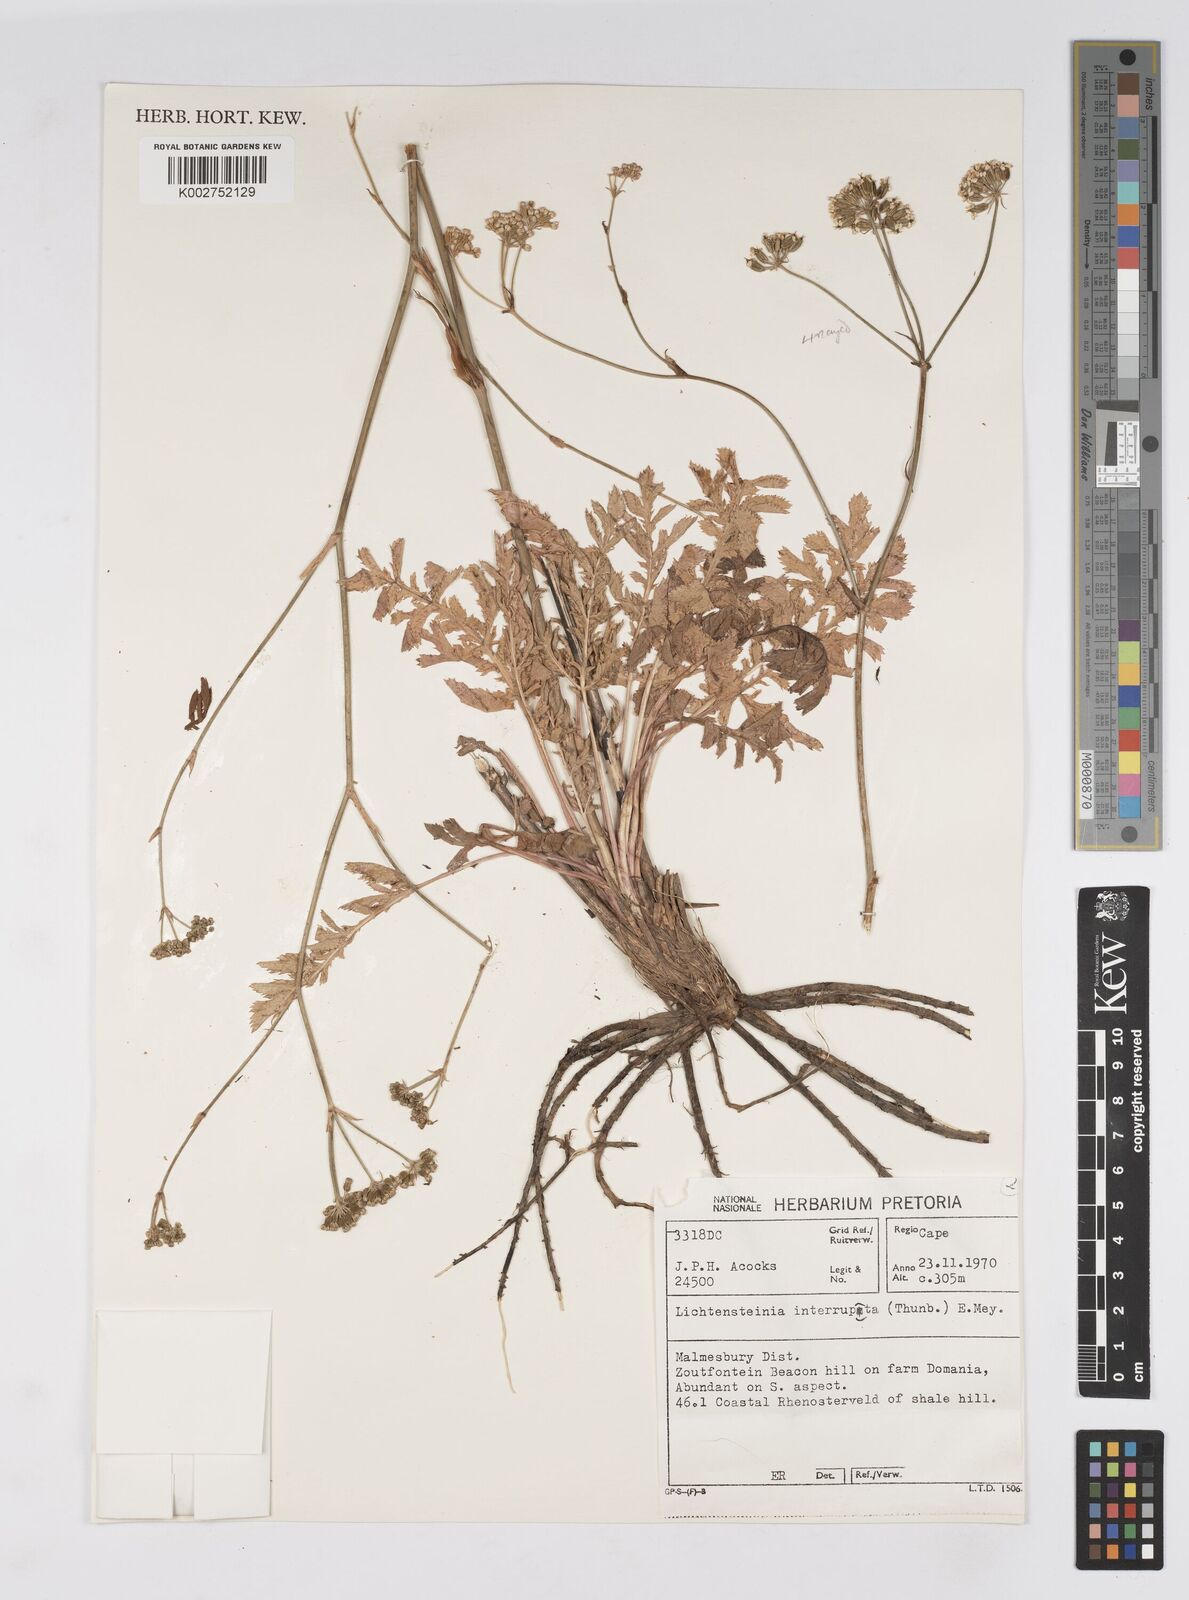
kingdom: Plantae
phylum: Tracheophyta
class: Magnoliopsida
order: Apiales
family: Apiaceae
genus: Lichtensteinia
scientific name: Lichtensteinia obscura
